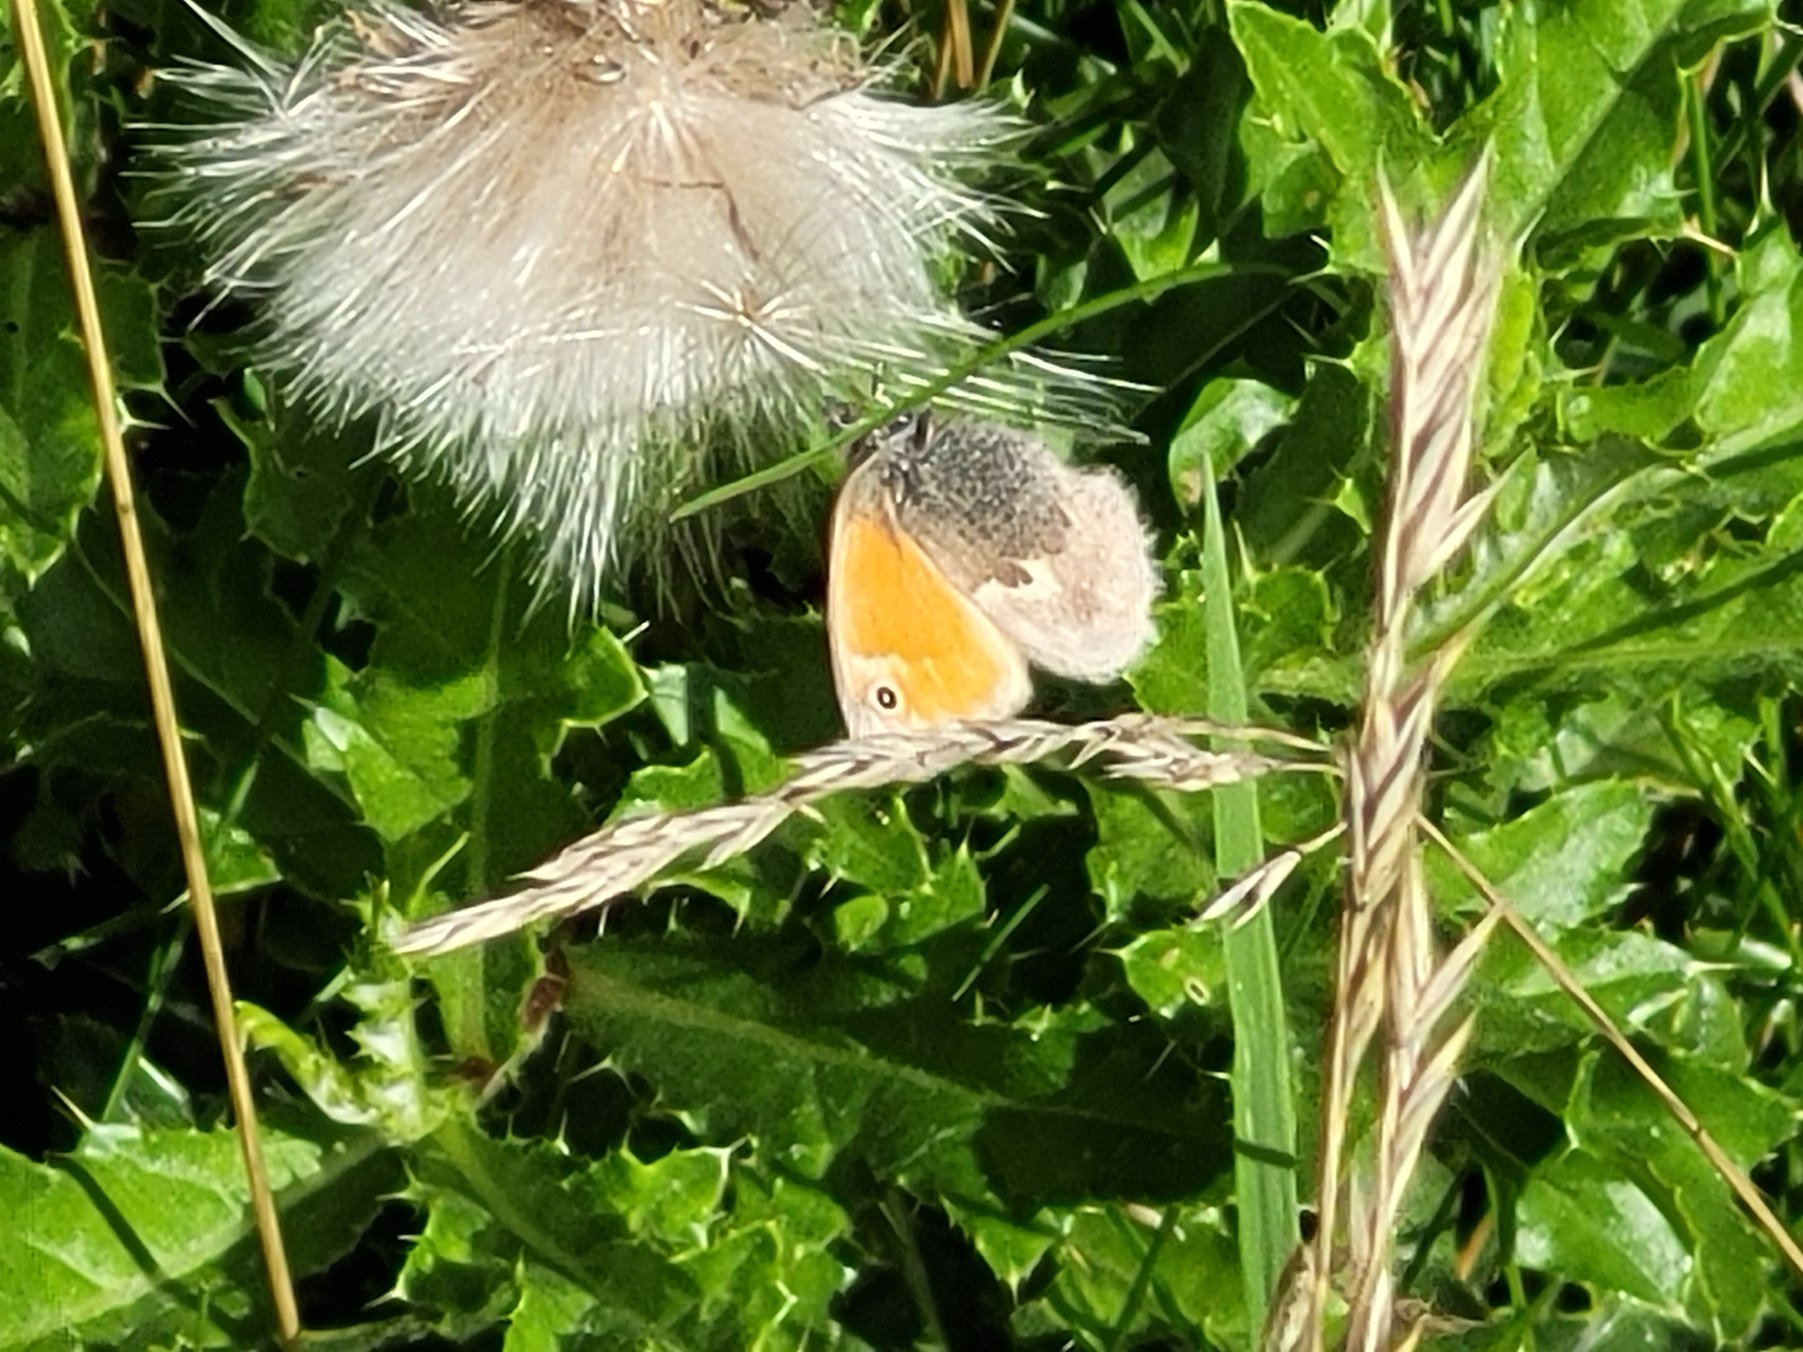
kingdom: Animalia
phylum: Arthropoda
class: Insecta
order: Lepidoptera
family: Nymphalidae
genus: Coenonympha
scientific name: Coenonympha pamphilus
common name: Okkergul randøje
